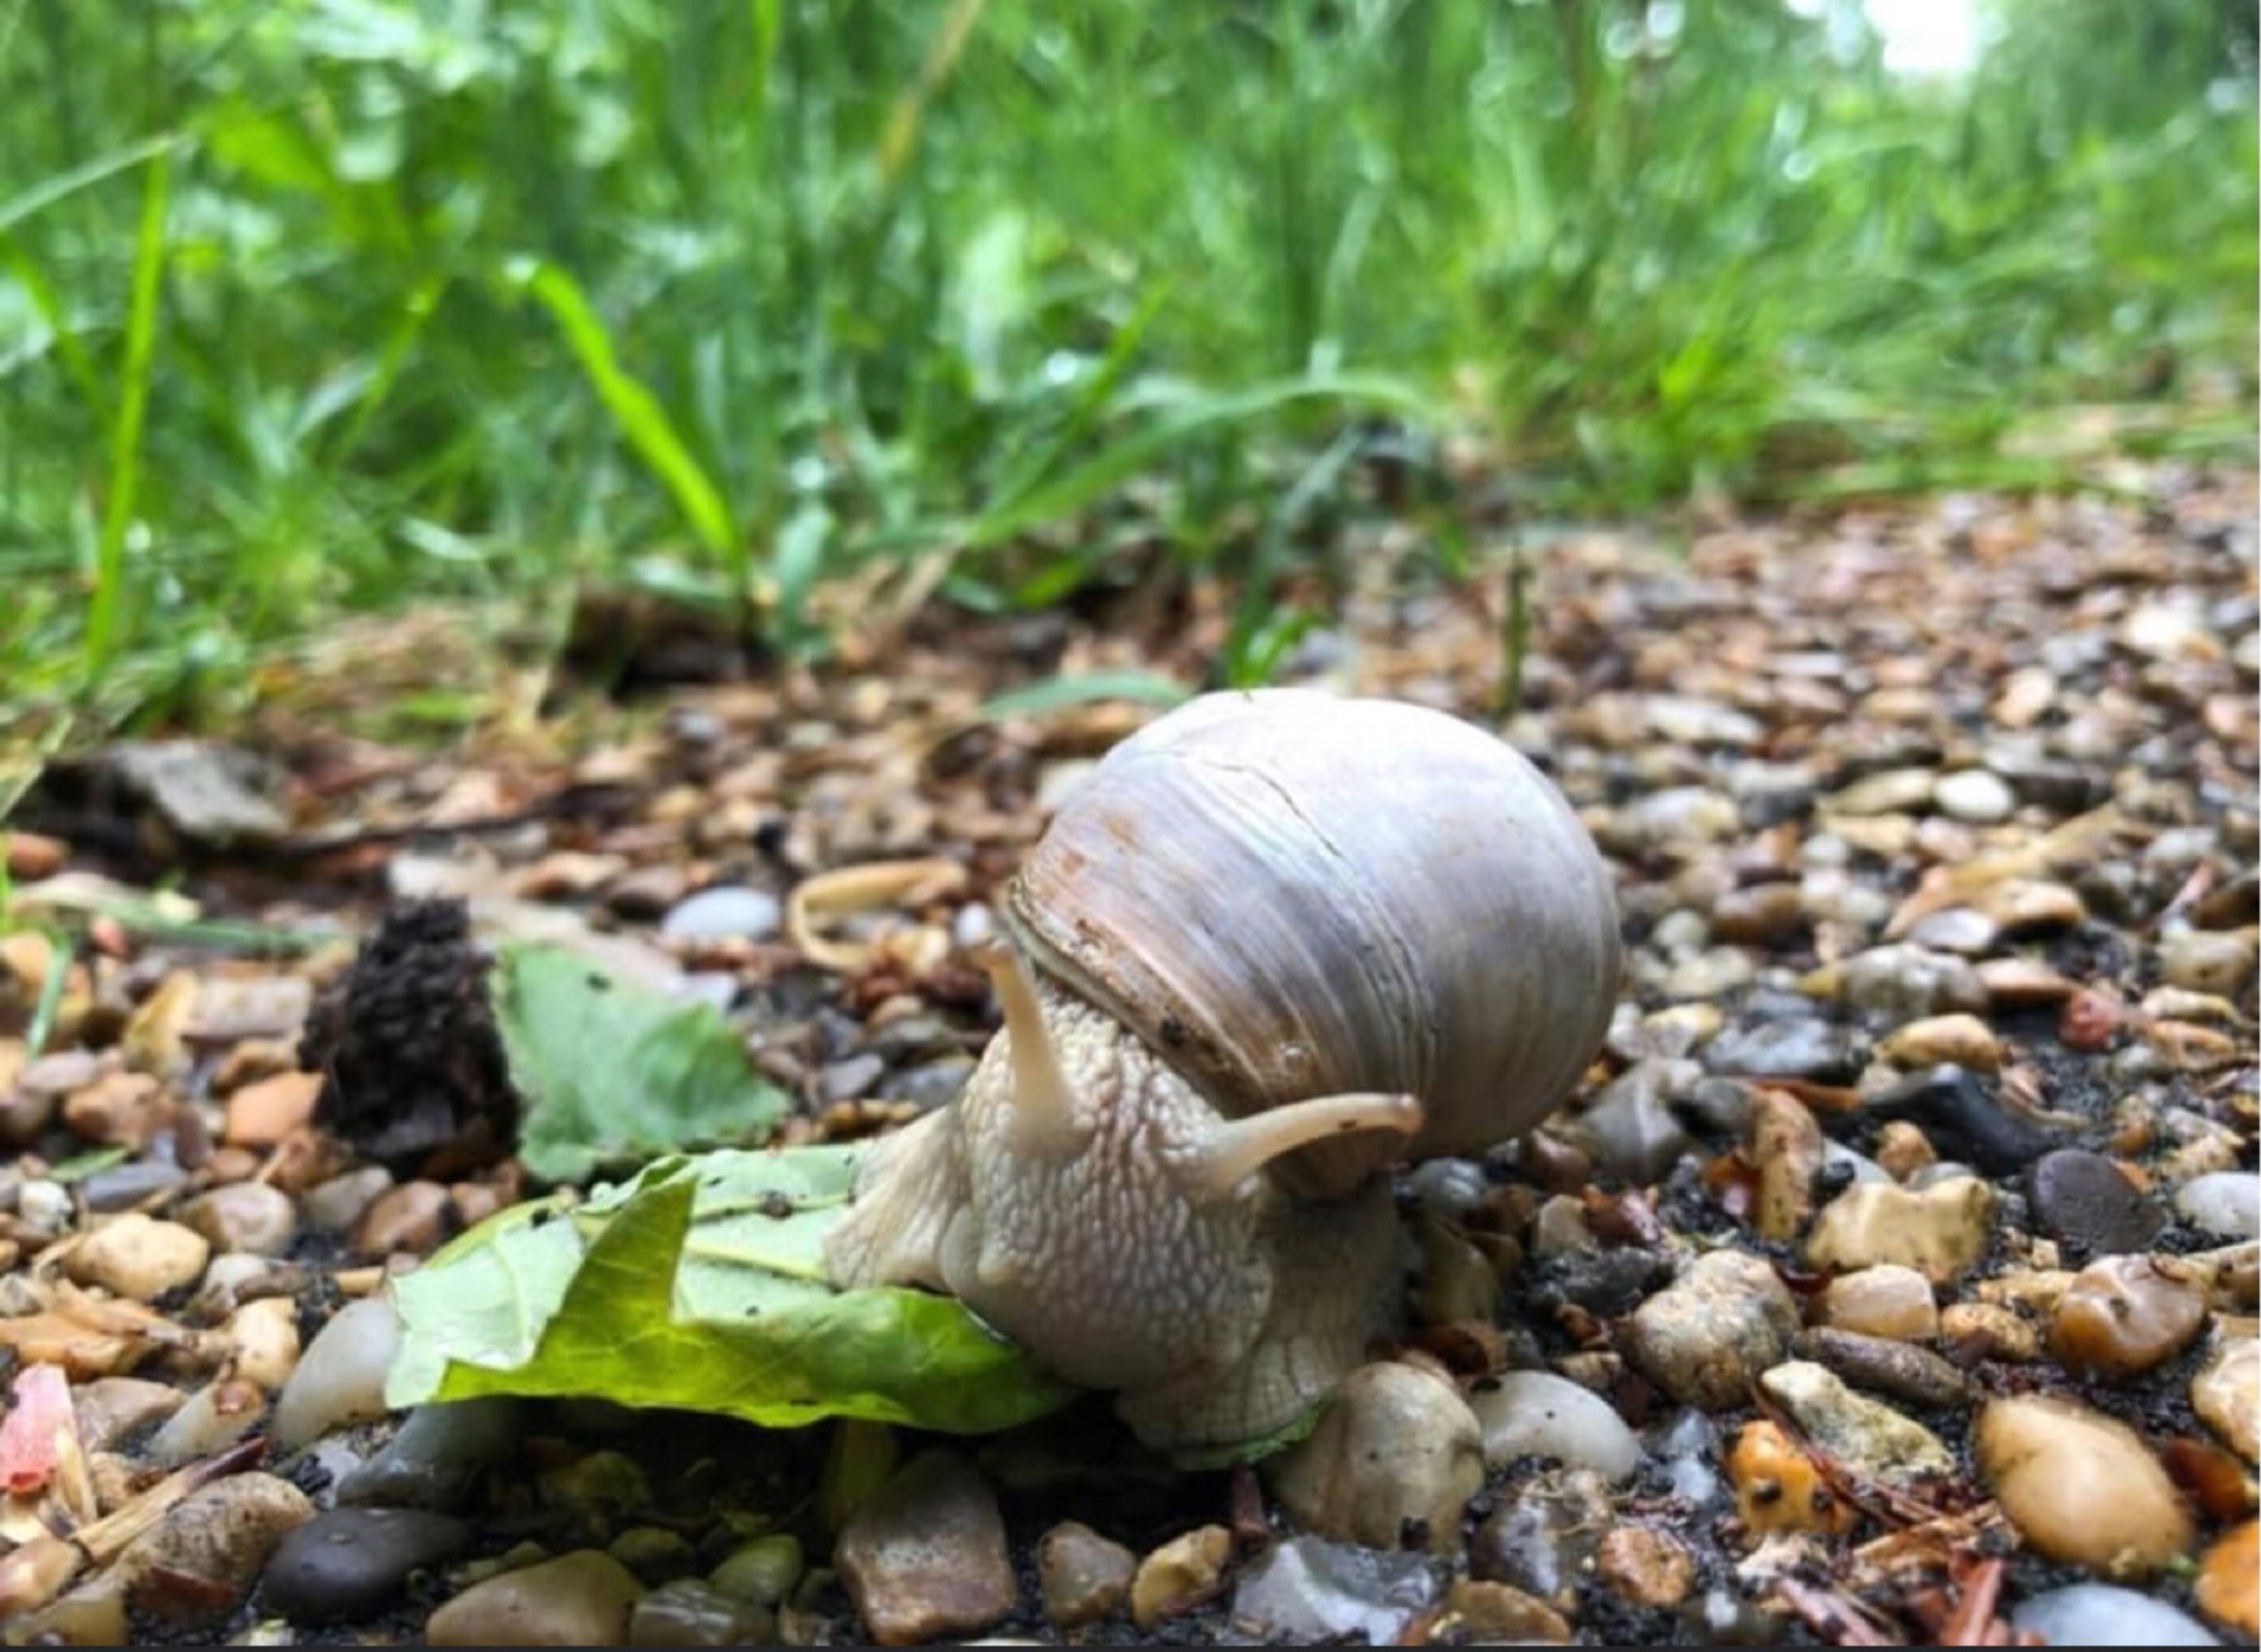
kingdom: Animalia
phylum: Mollusca
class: Gastropoda
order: Stylommatophora
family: Helicidae
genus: Helix
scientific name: Helix pomatia
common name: Vinbjergsnegl
